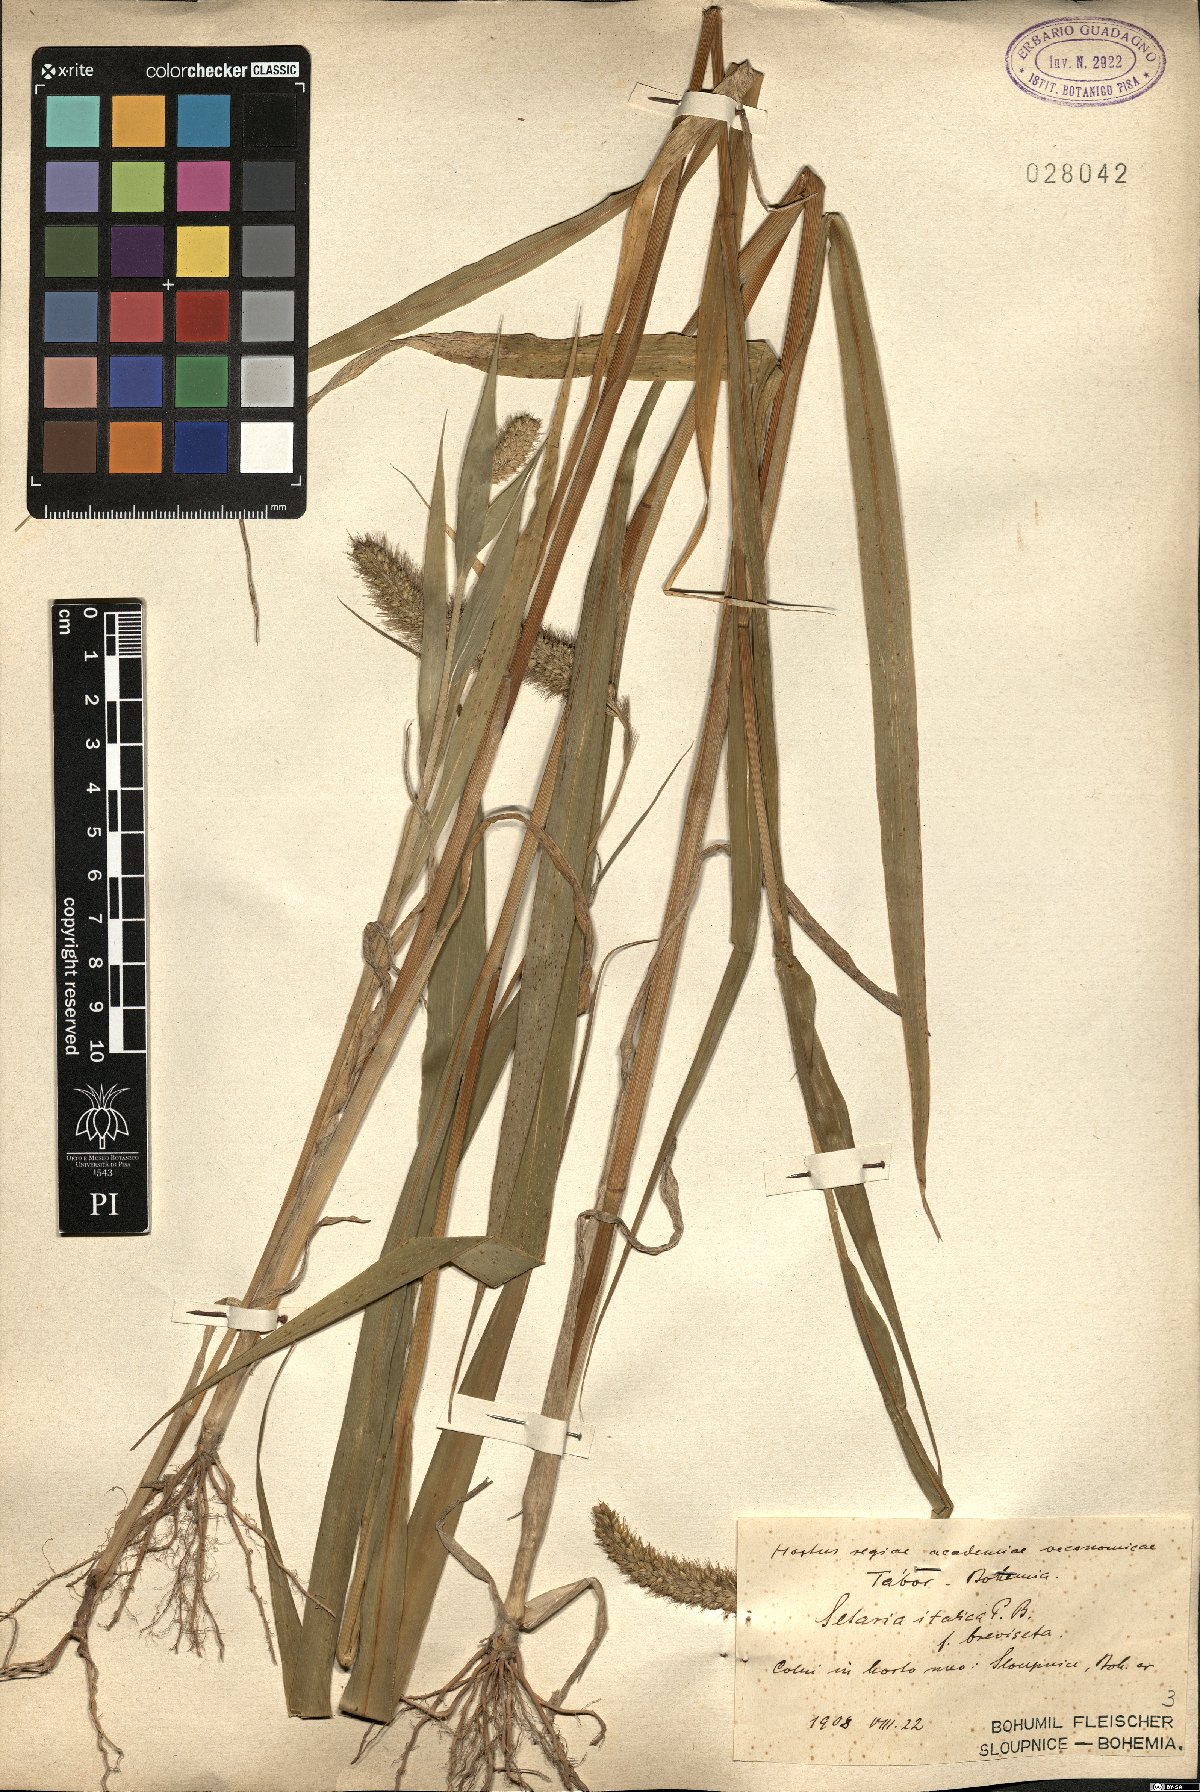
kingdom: Plantae
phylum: Tracheophyta
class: Liliopsida
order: Poales
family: Poaceae
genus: Setaria
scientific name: Setaria italica
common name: Foxtail bristle-grass
